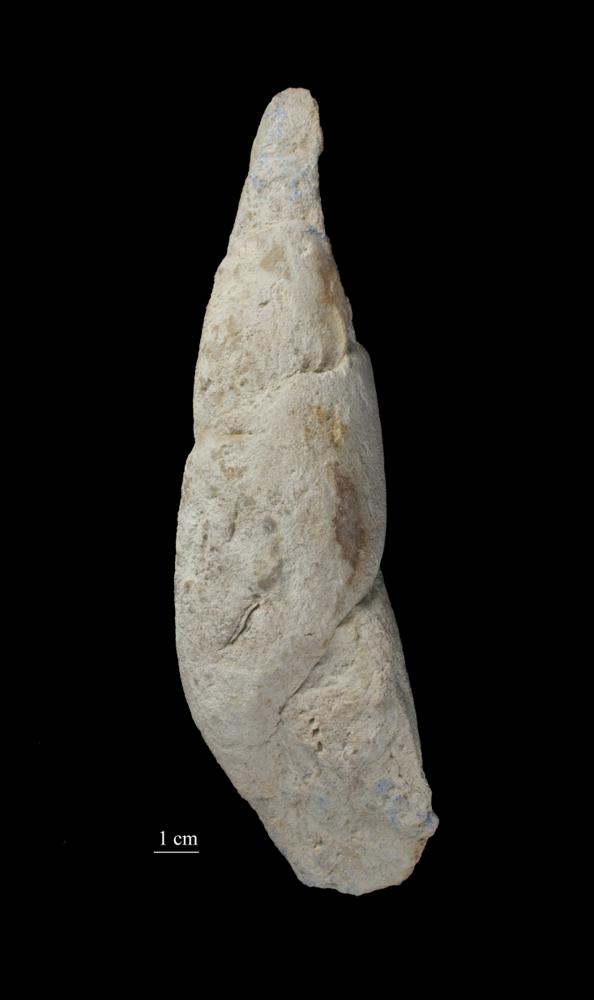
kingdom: Animalia
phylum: Mollusca
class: Gastropoda
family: Subulitidae
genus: Subulites
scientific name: Subulites Phasianella gigas
